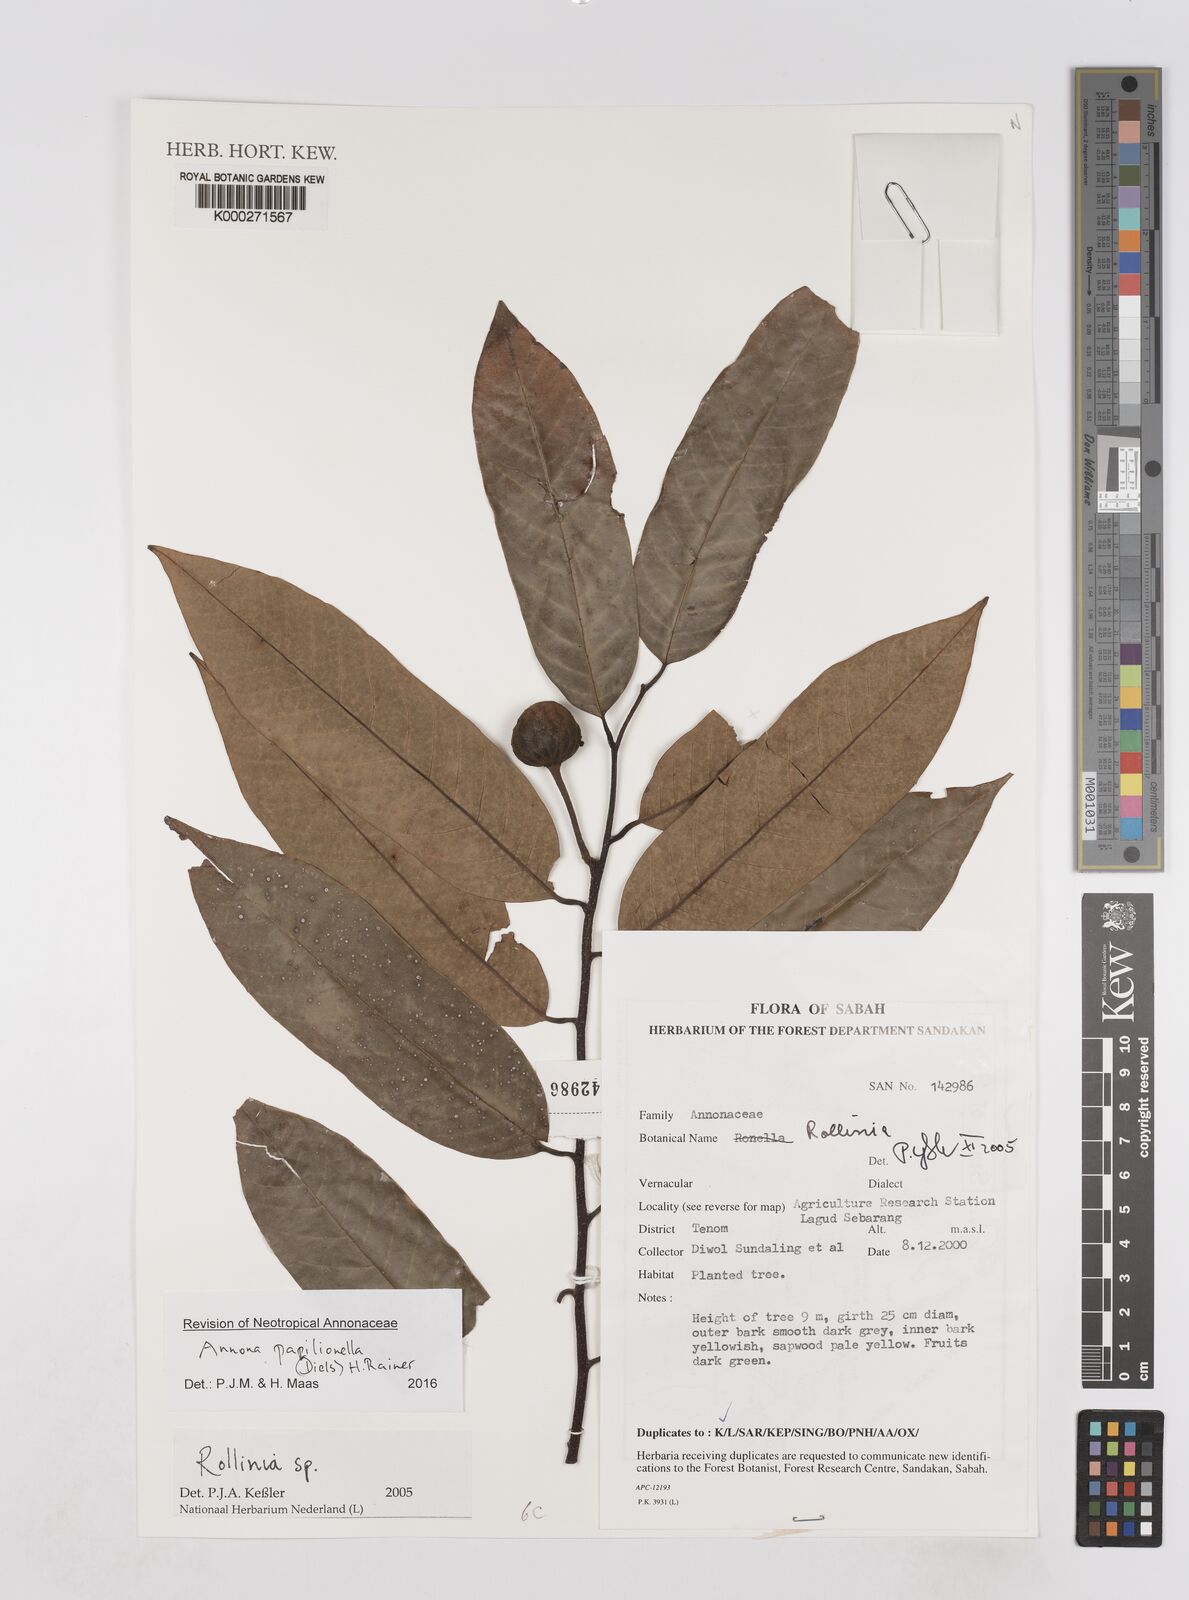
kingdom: Plantae
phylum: Tracheophyta
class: Magnoliopsida
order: Magnoliales
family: Annonaceae
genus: Annona
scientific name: Annona
